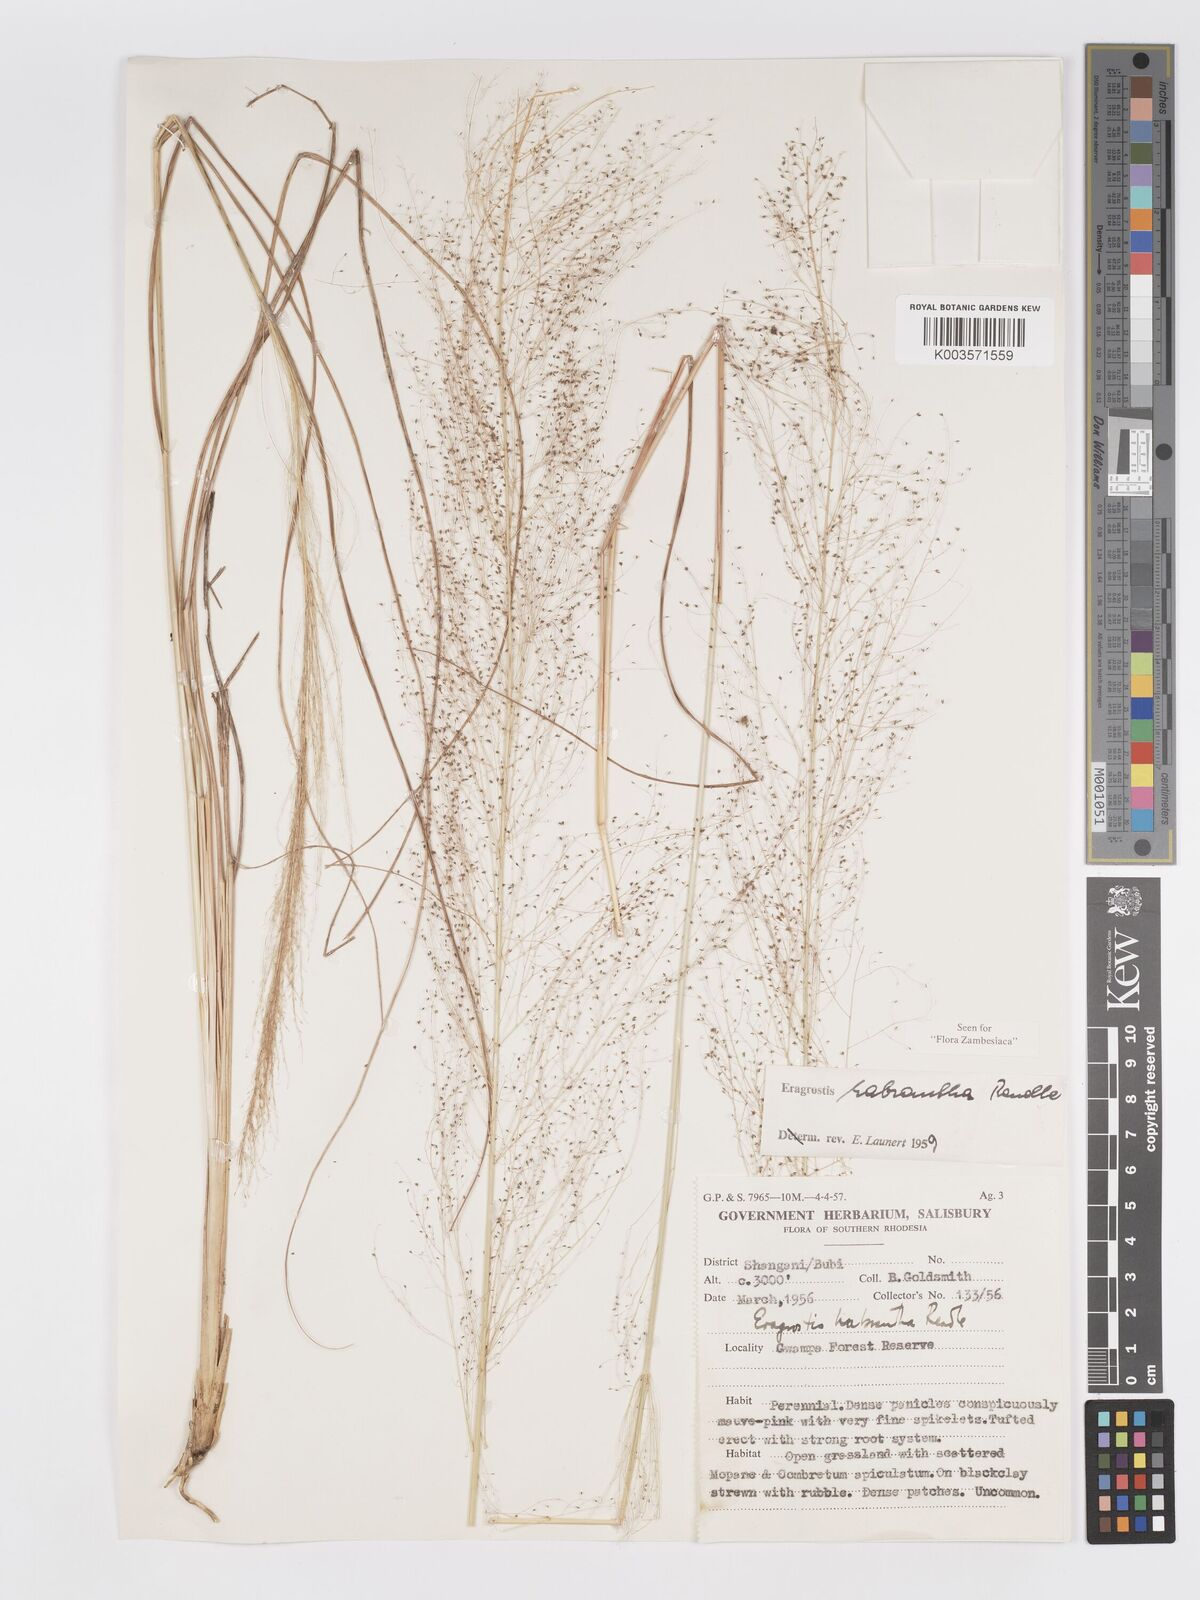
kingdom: Plantae
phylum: Tracheophyta
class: Liliopsida
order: Poales
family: Poaceae
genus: Eragrostis
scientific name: Eragrostis habrantha
